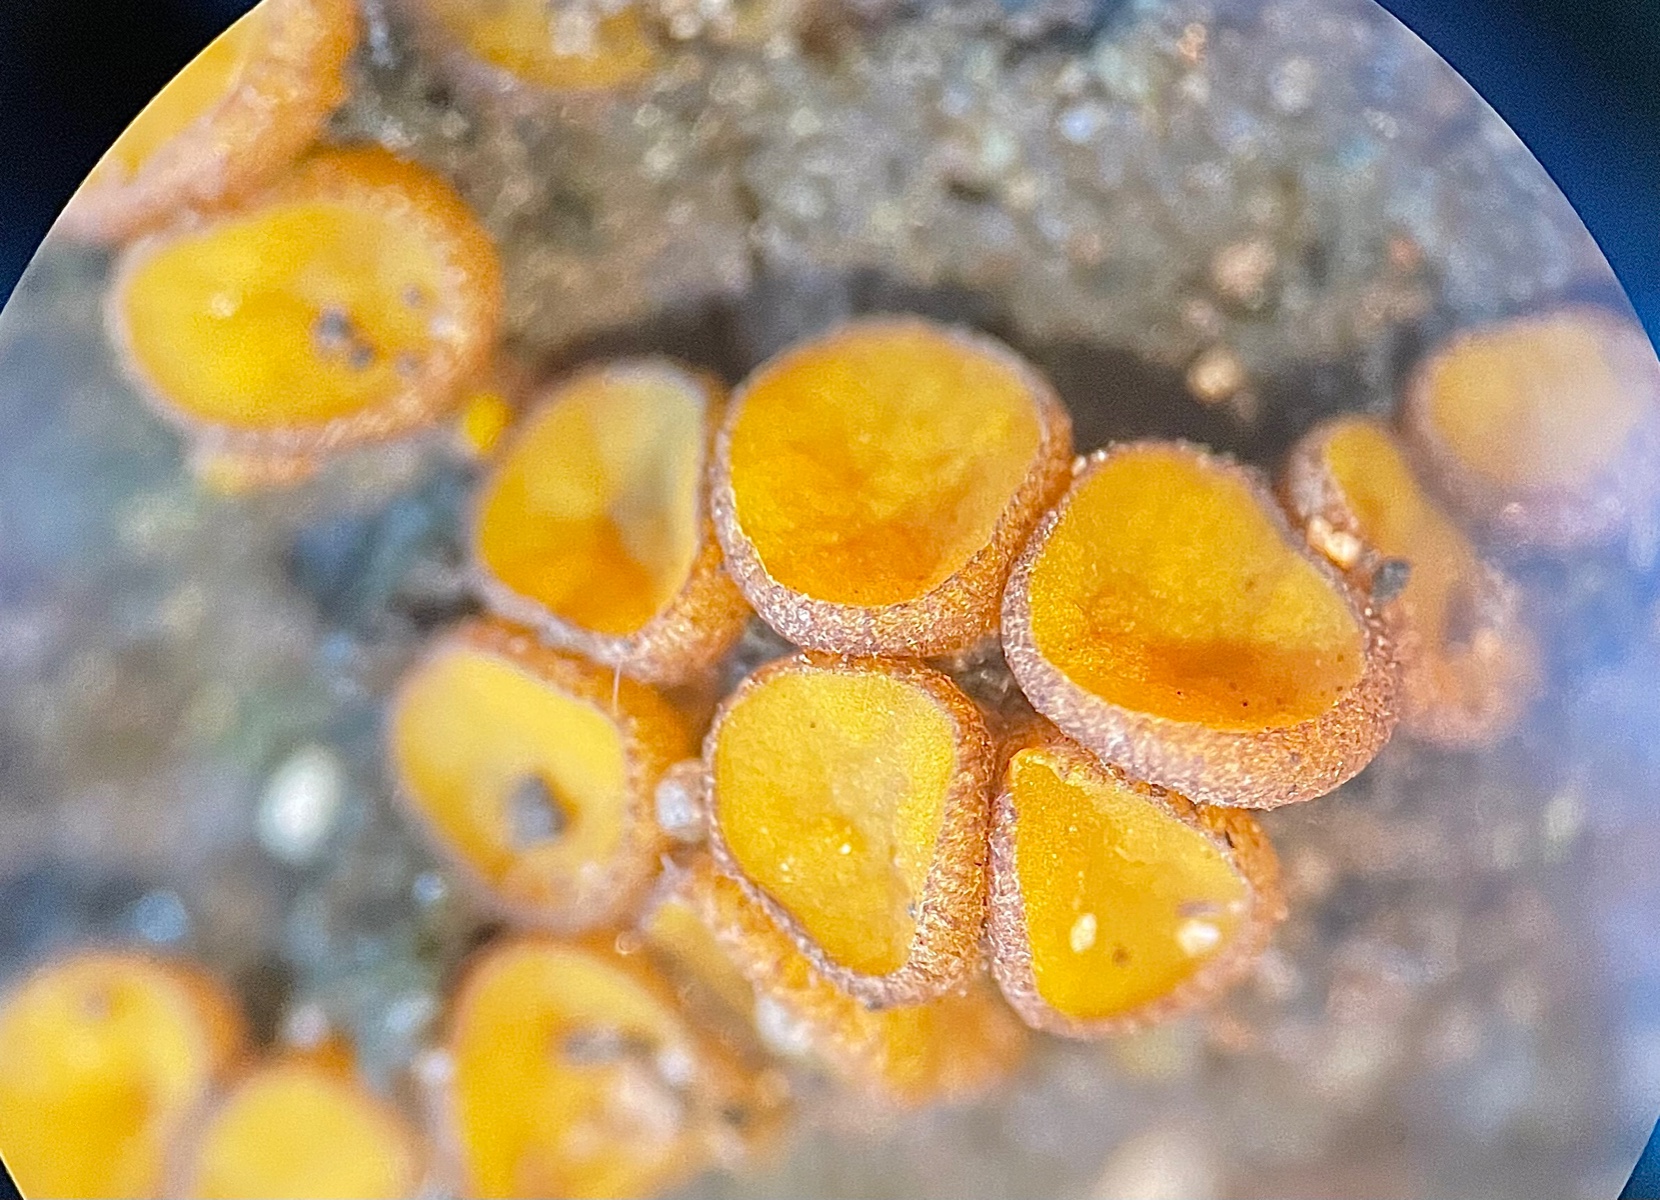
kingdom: Fungi
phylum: Ascomycota
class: Pezizomycetes
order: Pezizales
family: Pyronemataceae
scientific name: Pyronemataceae
